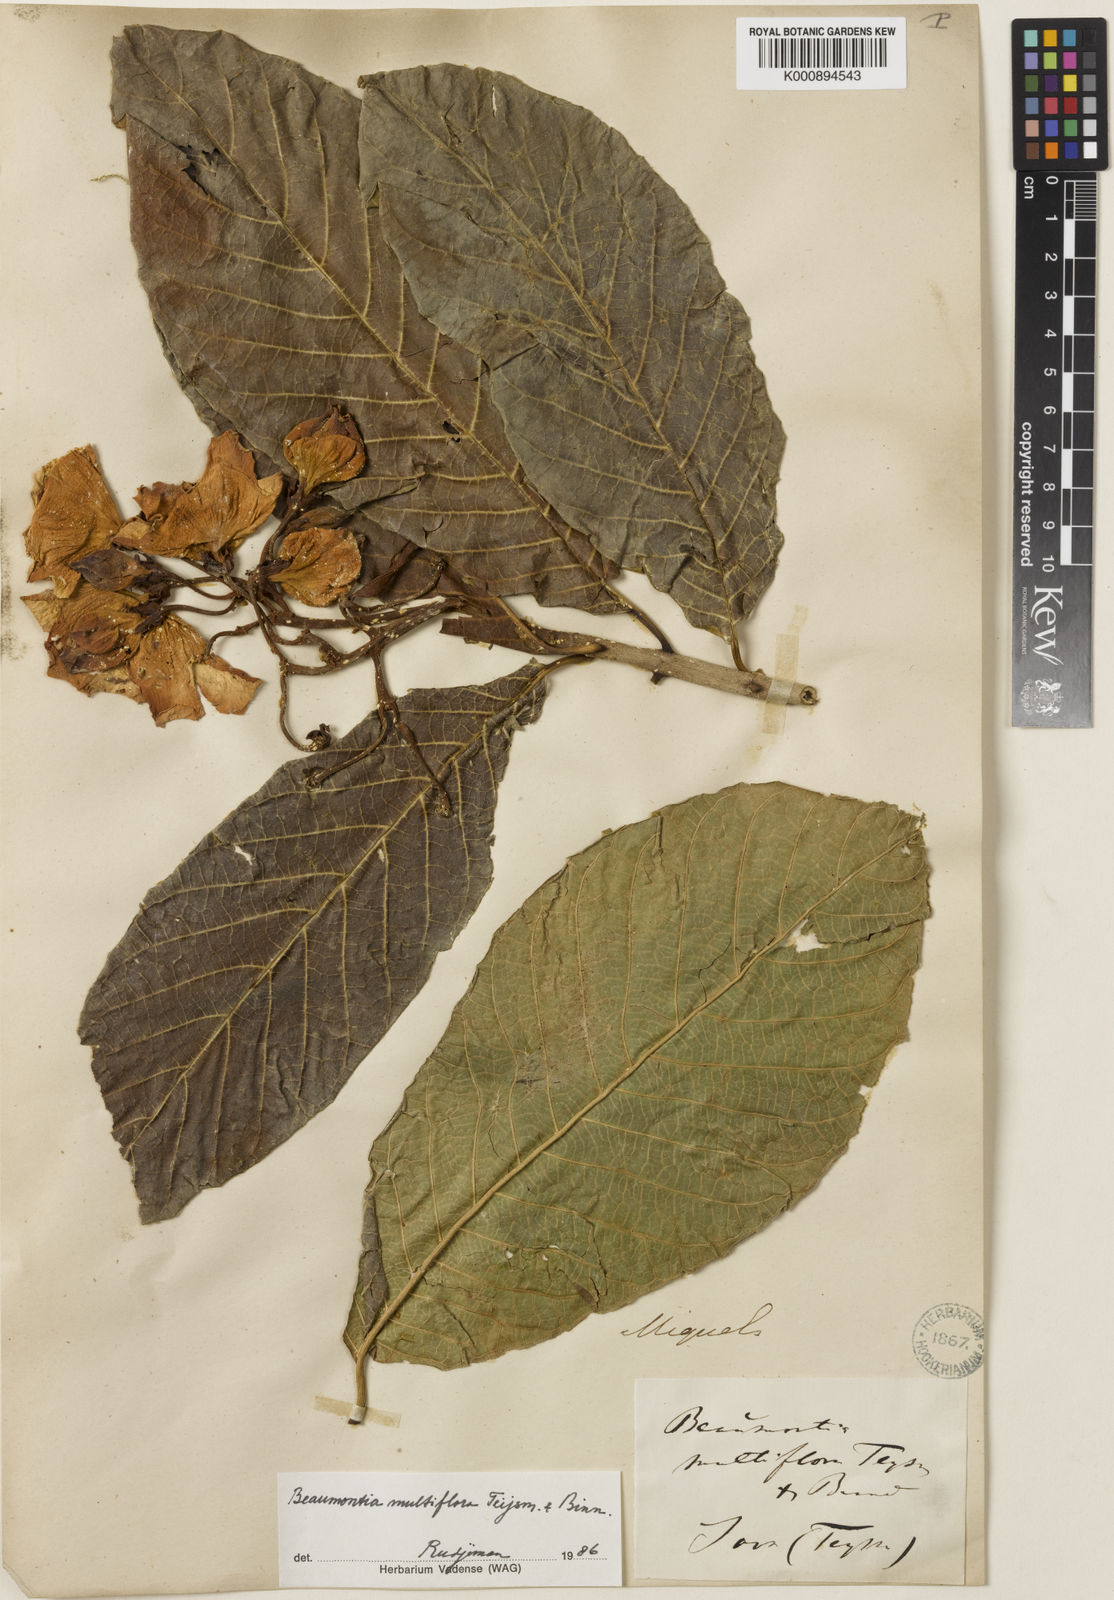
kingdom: Plantae
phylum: Tracheophyta
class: Magnoliopsida
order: Gentianales
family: Apocynaceae
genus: Beaumontia
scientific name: Beaumontia multiflora
